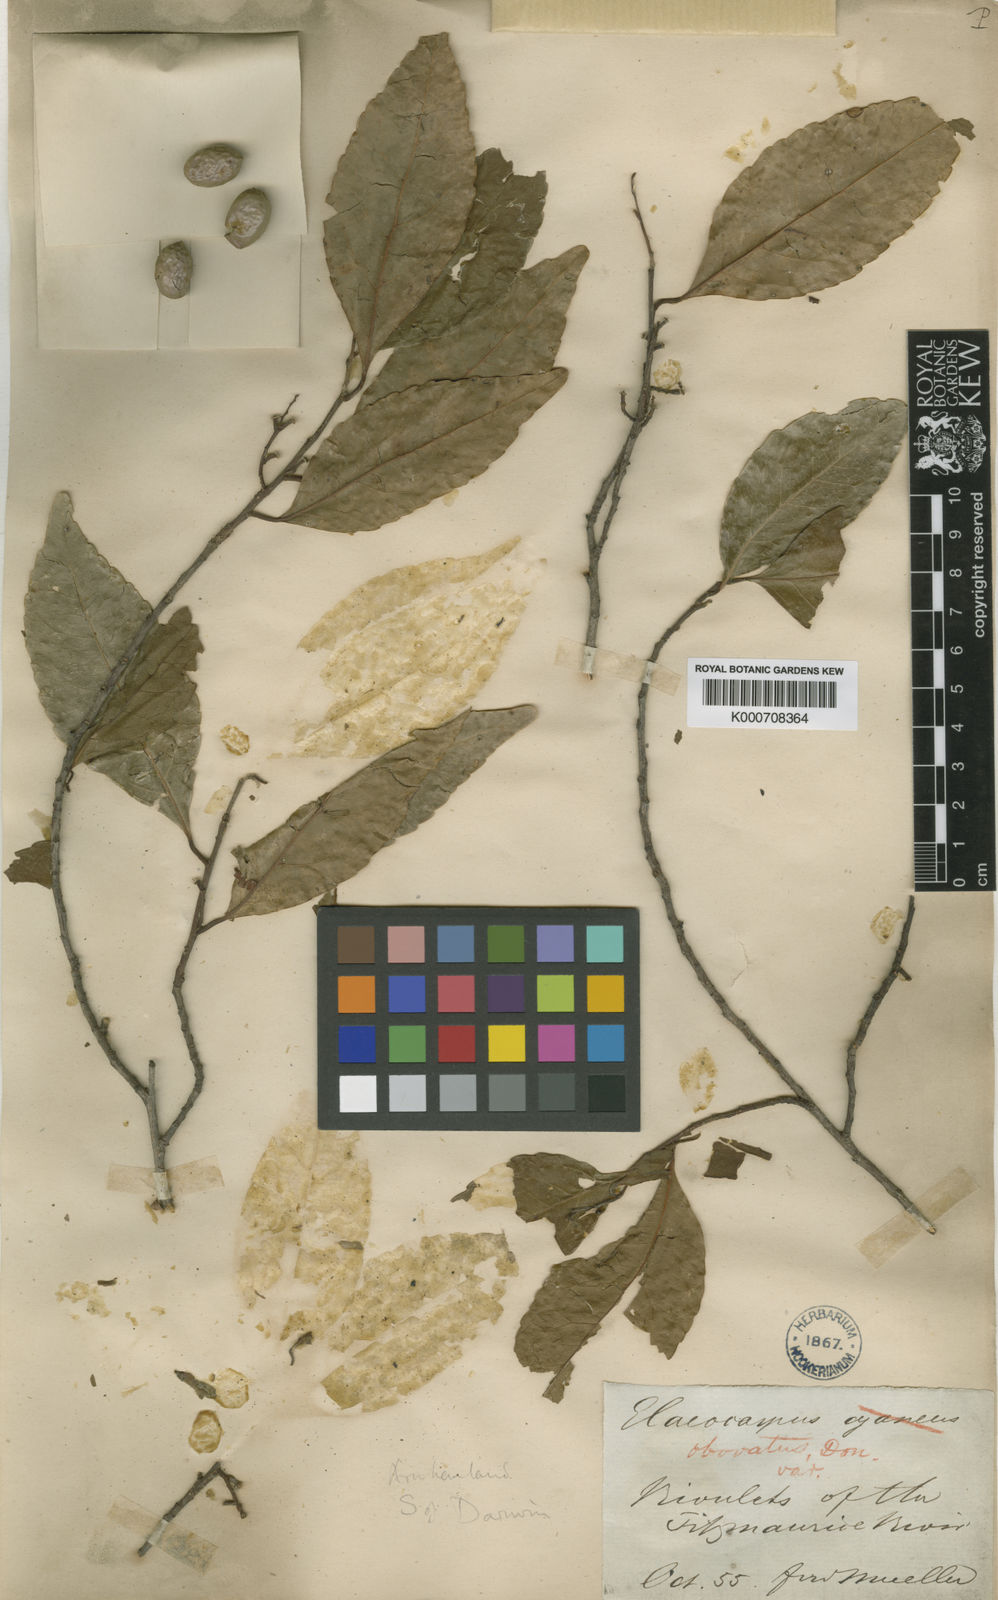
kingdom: Plantae
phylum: Tracheophyta
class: Magnoliopsida
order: Oxalidales
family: Elaeocarpaceae
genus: Elaeocarpus
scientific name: Elaeocarpus arnhemicus
